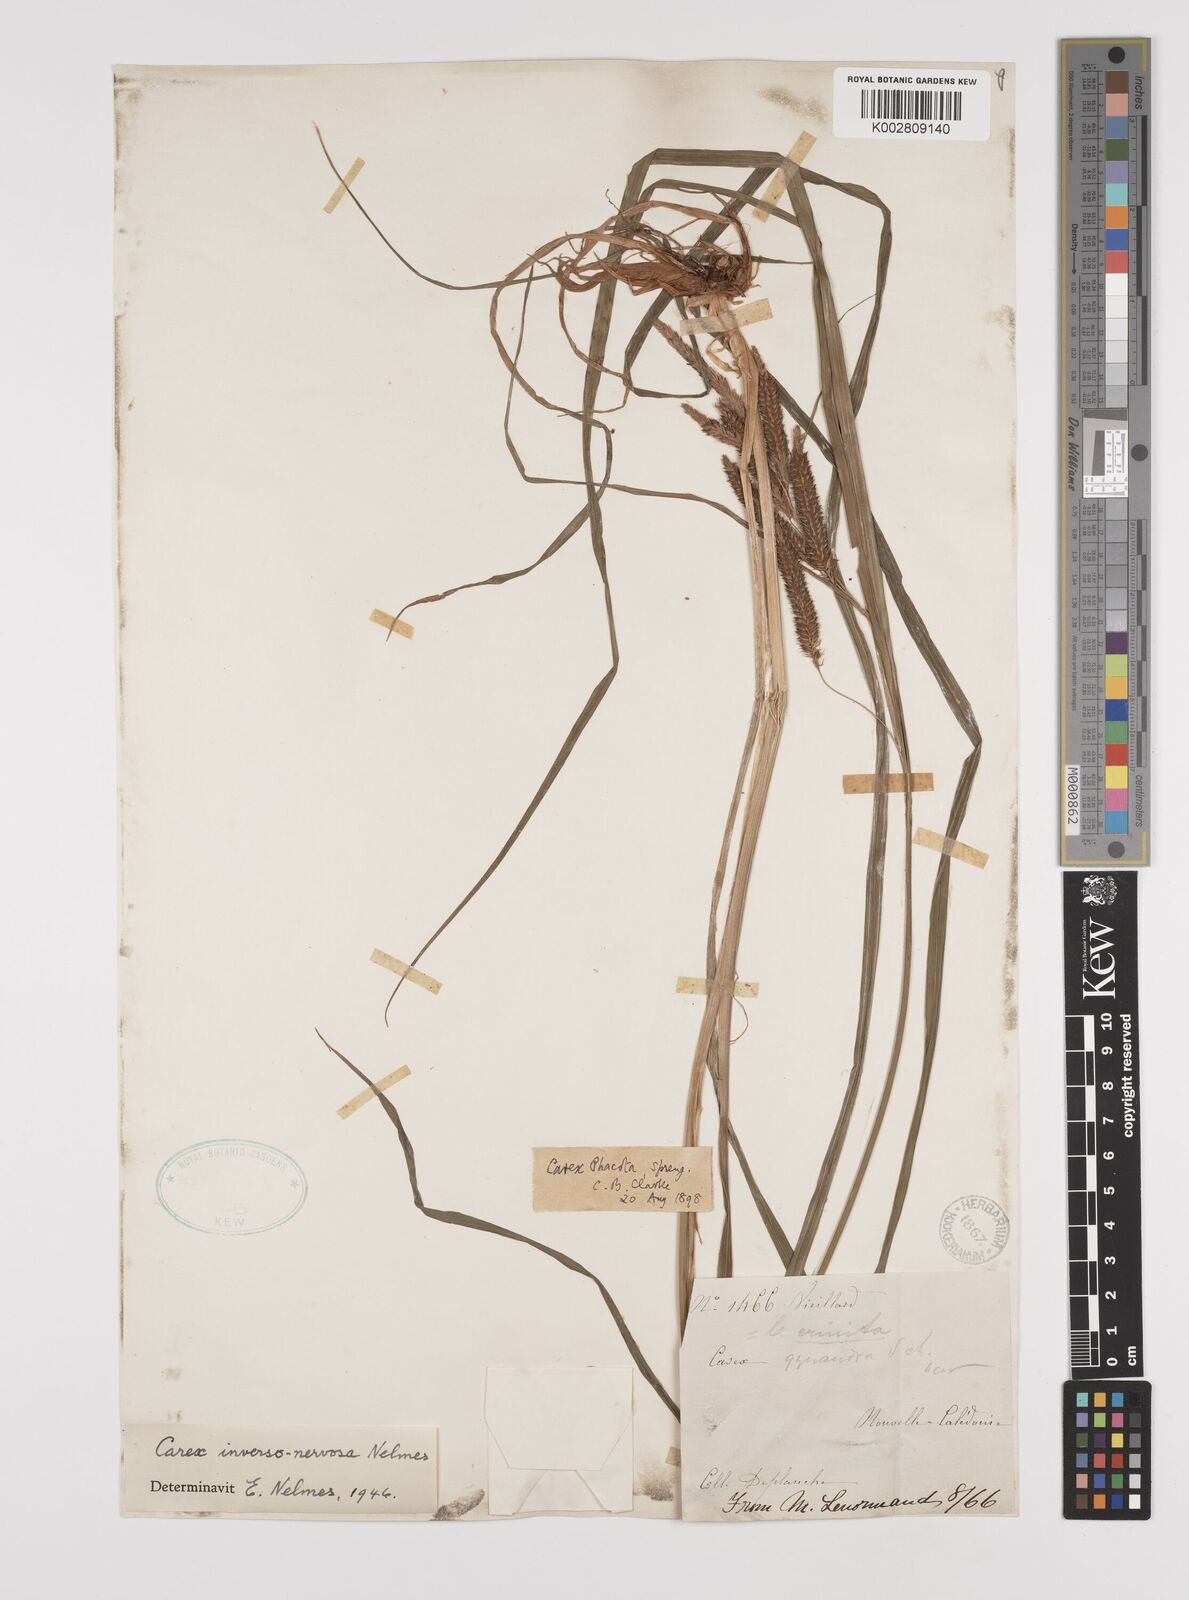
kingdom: Plantae
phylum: Tracheophyta
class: Liliopsida
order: Poales
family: Cyperaceae
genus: Carex
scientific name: Carex inversonervosa
